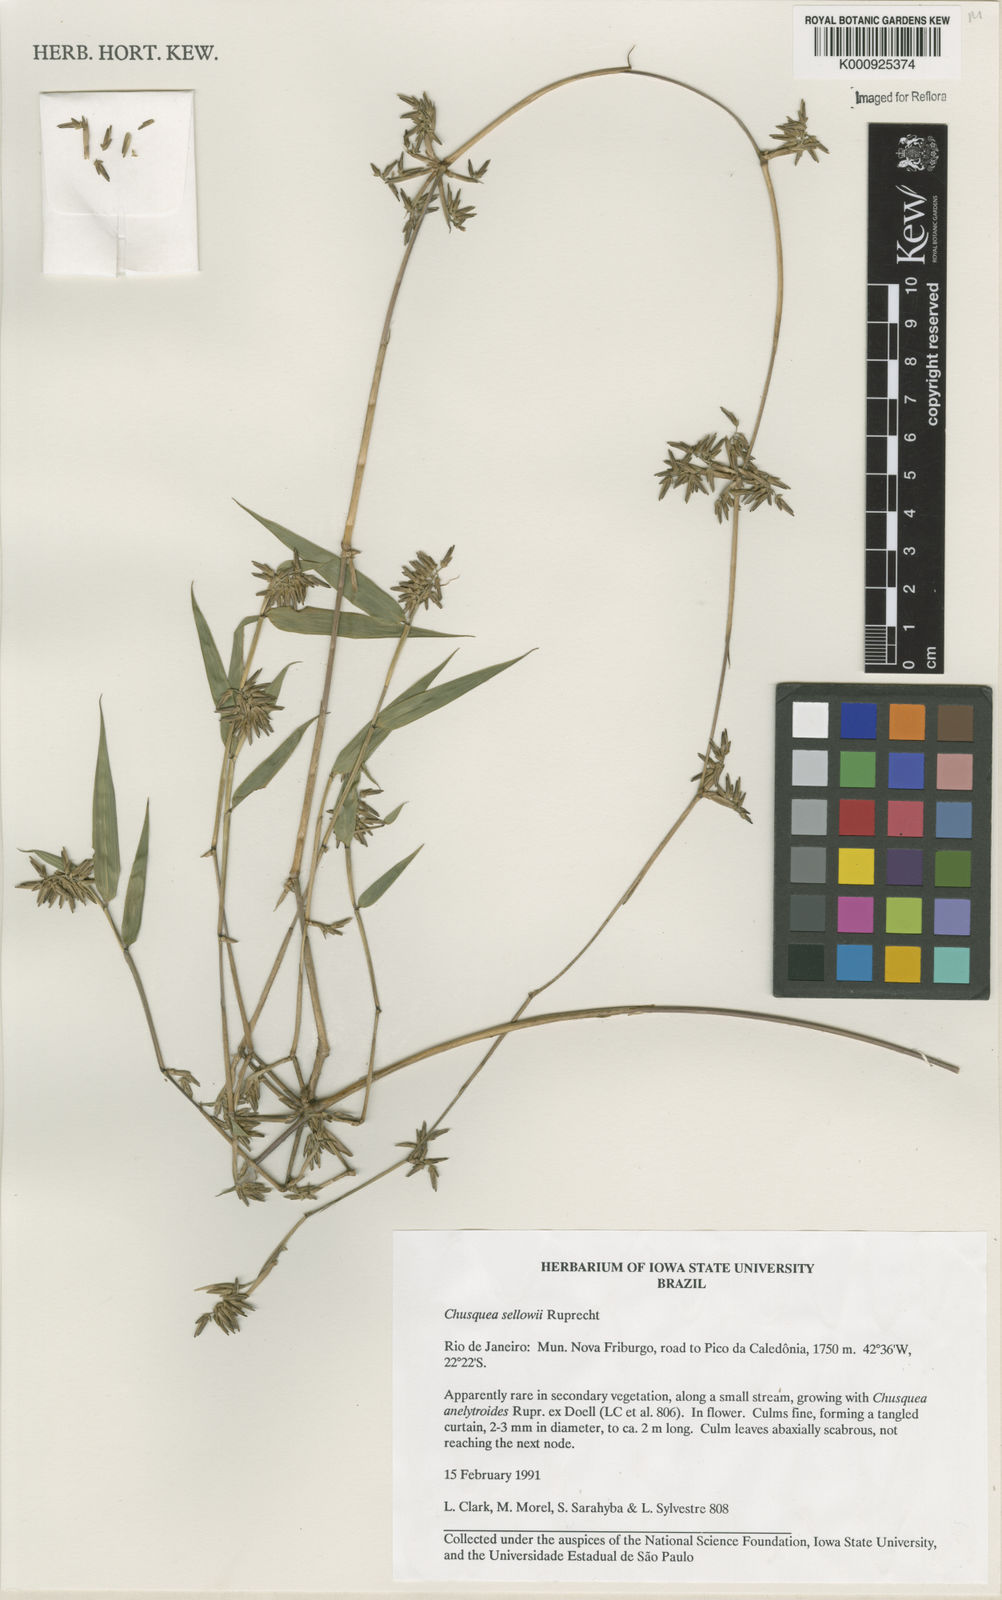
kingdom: Plantae
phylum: Tracheophyta
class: Liliopsida
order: Poales
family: Poaceae
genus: Chusquea
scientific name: Chusquea sellowii
